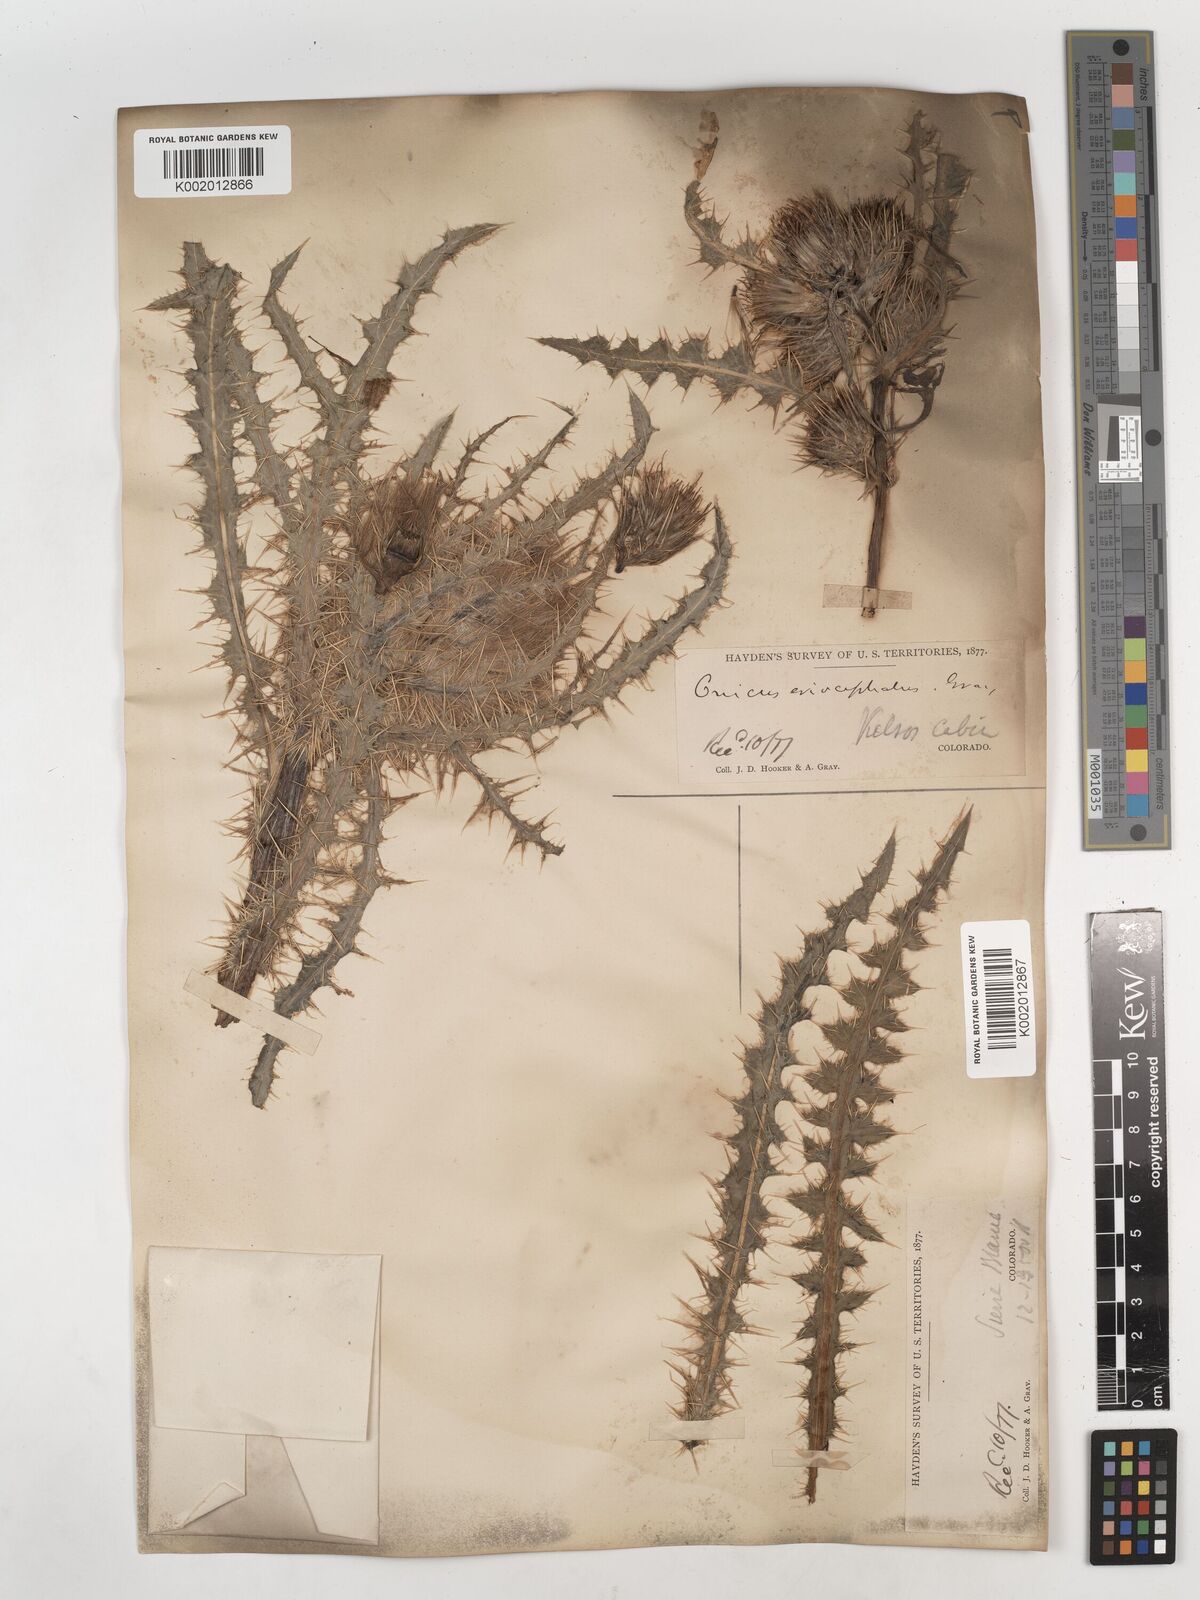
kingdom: Plantae
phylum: Tracheophyta
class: Magnoliopsida
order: Asterales
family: Asteraceae
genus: Cirsium
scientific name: Cirsium scopulorum
